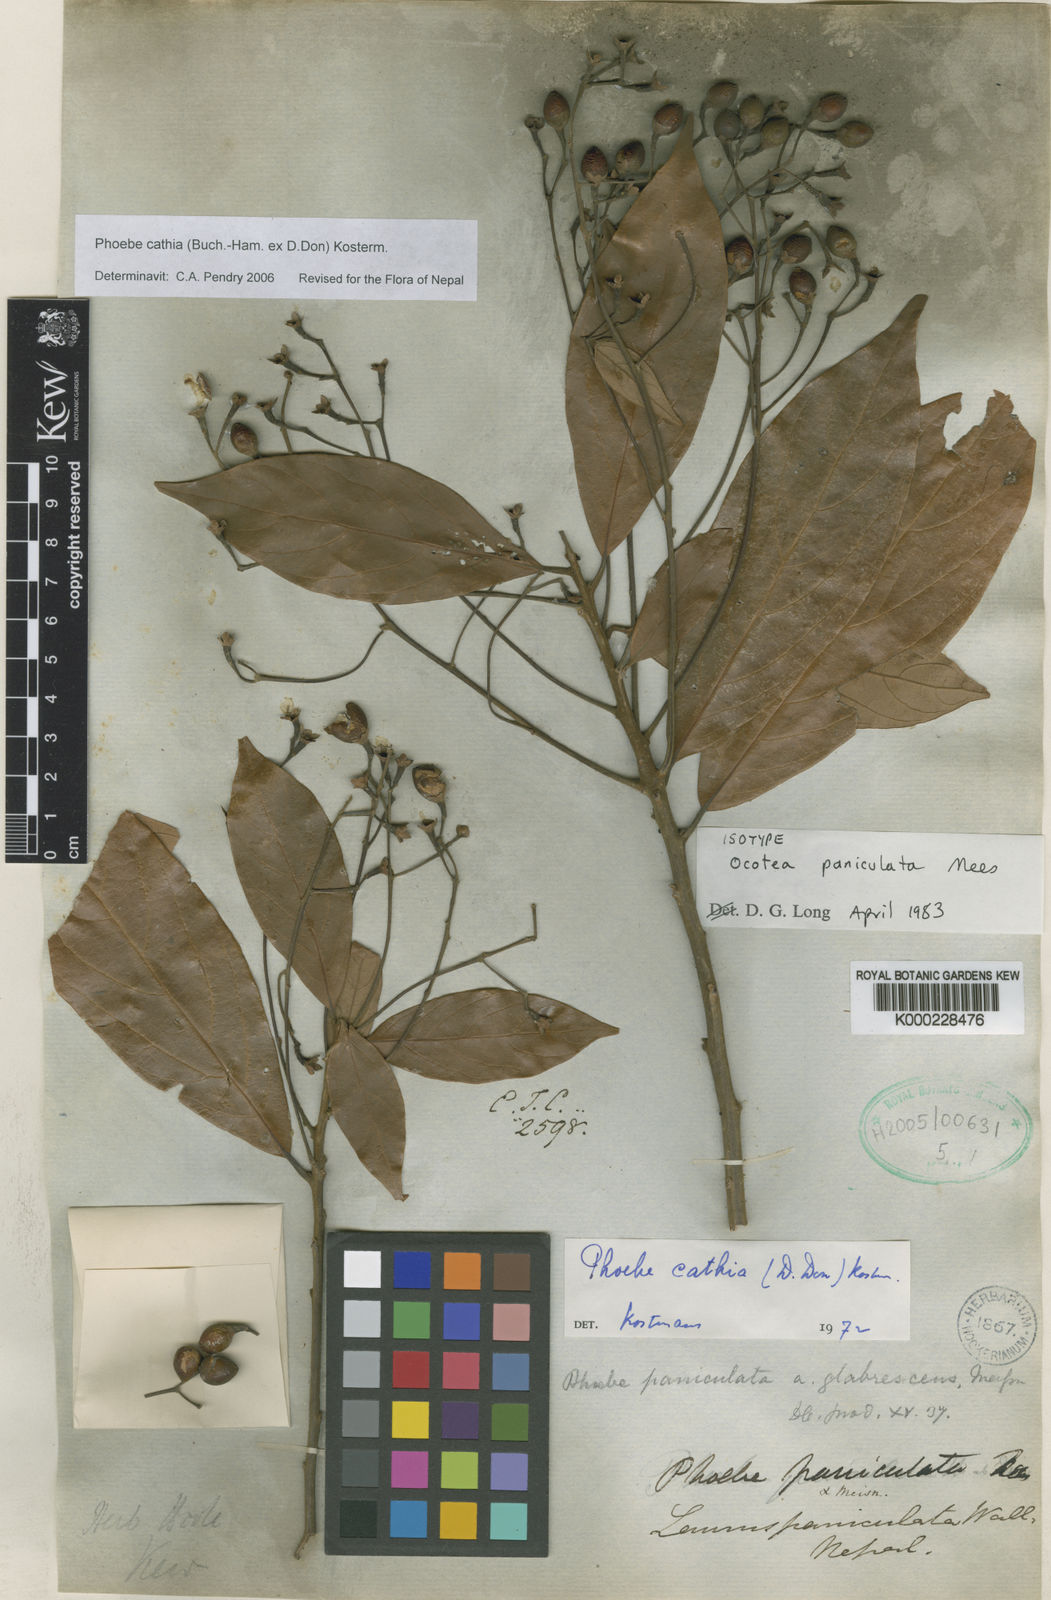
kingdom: Plantae
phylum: Tracheophyta
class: Magnoliopsida
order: Laurales
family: Lauraceae
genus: Phoebe
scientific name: Phoebe cathia
